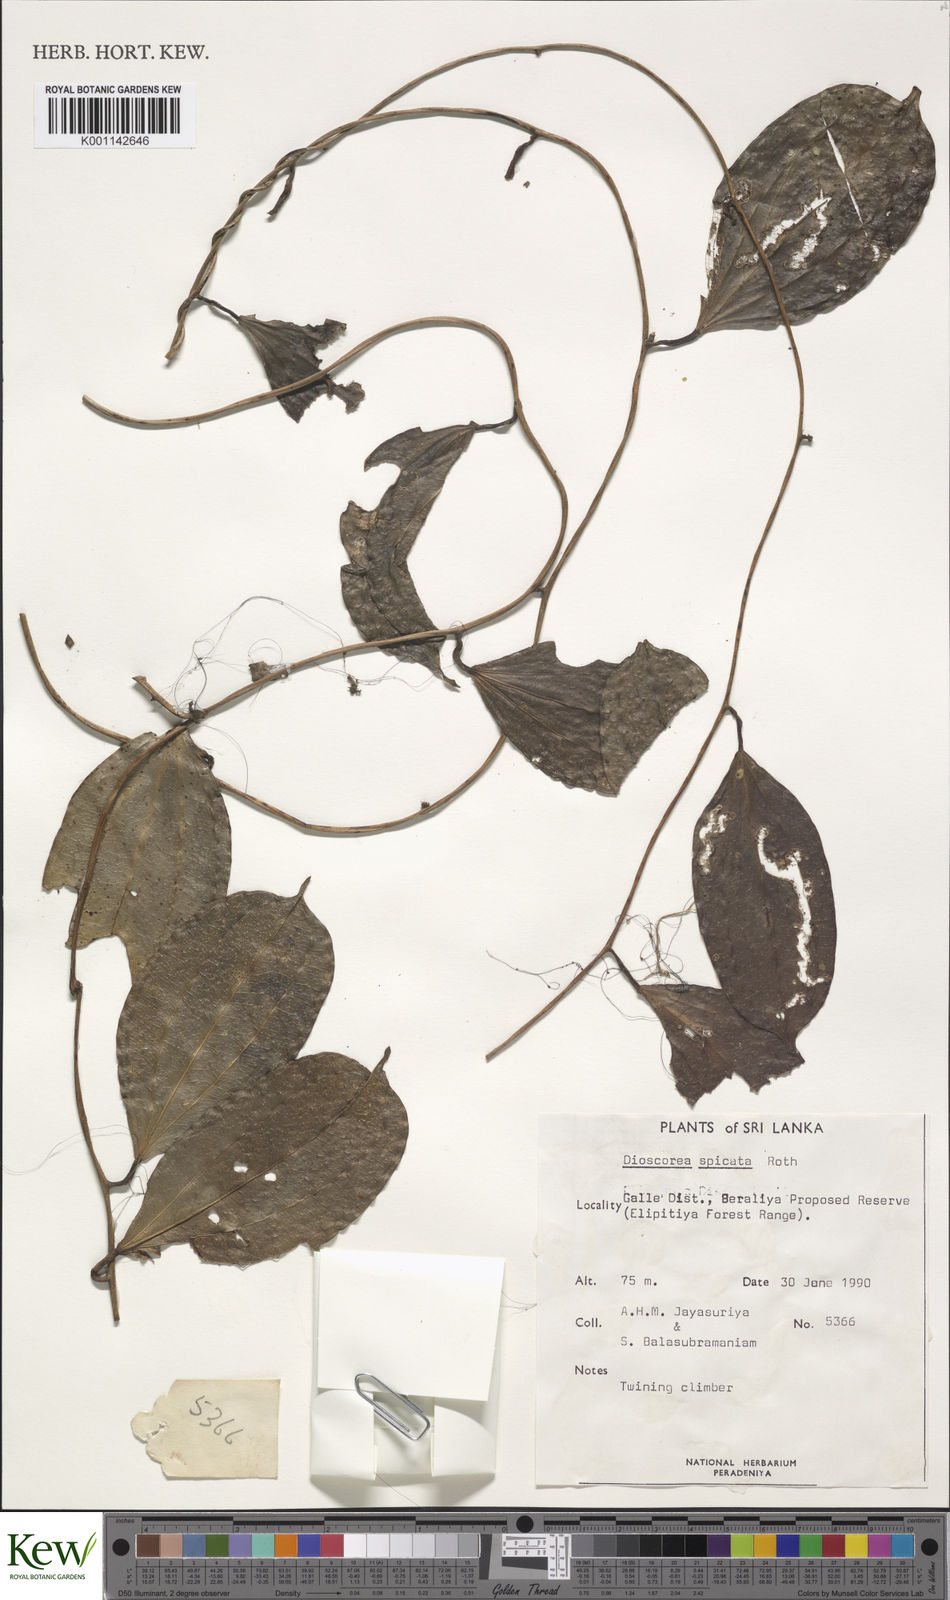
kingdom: Plantae
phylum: Tracheophyta
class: Liliopsida
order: Dioscoreales
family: Dioscoreaceae
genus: Dioscorea
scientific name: Dioscorea spicata
